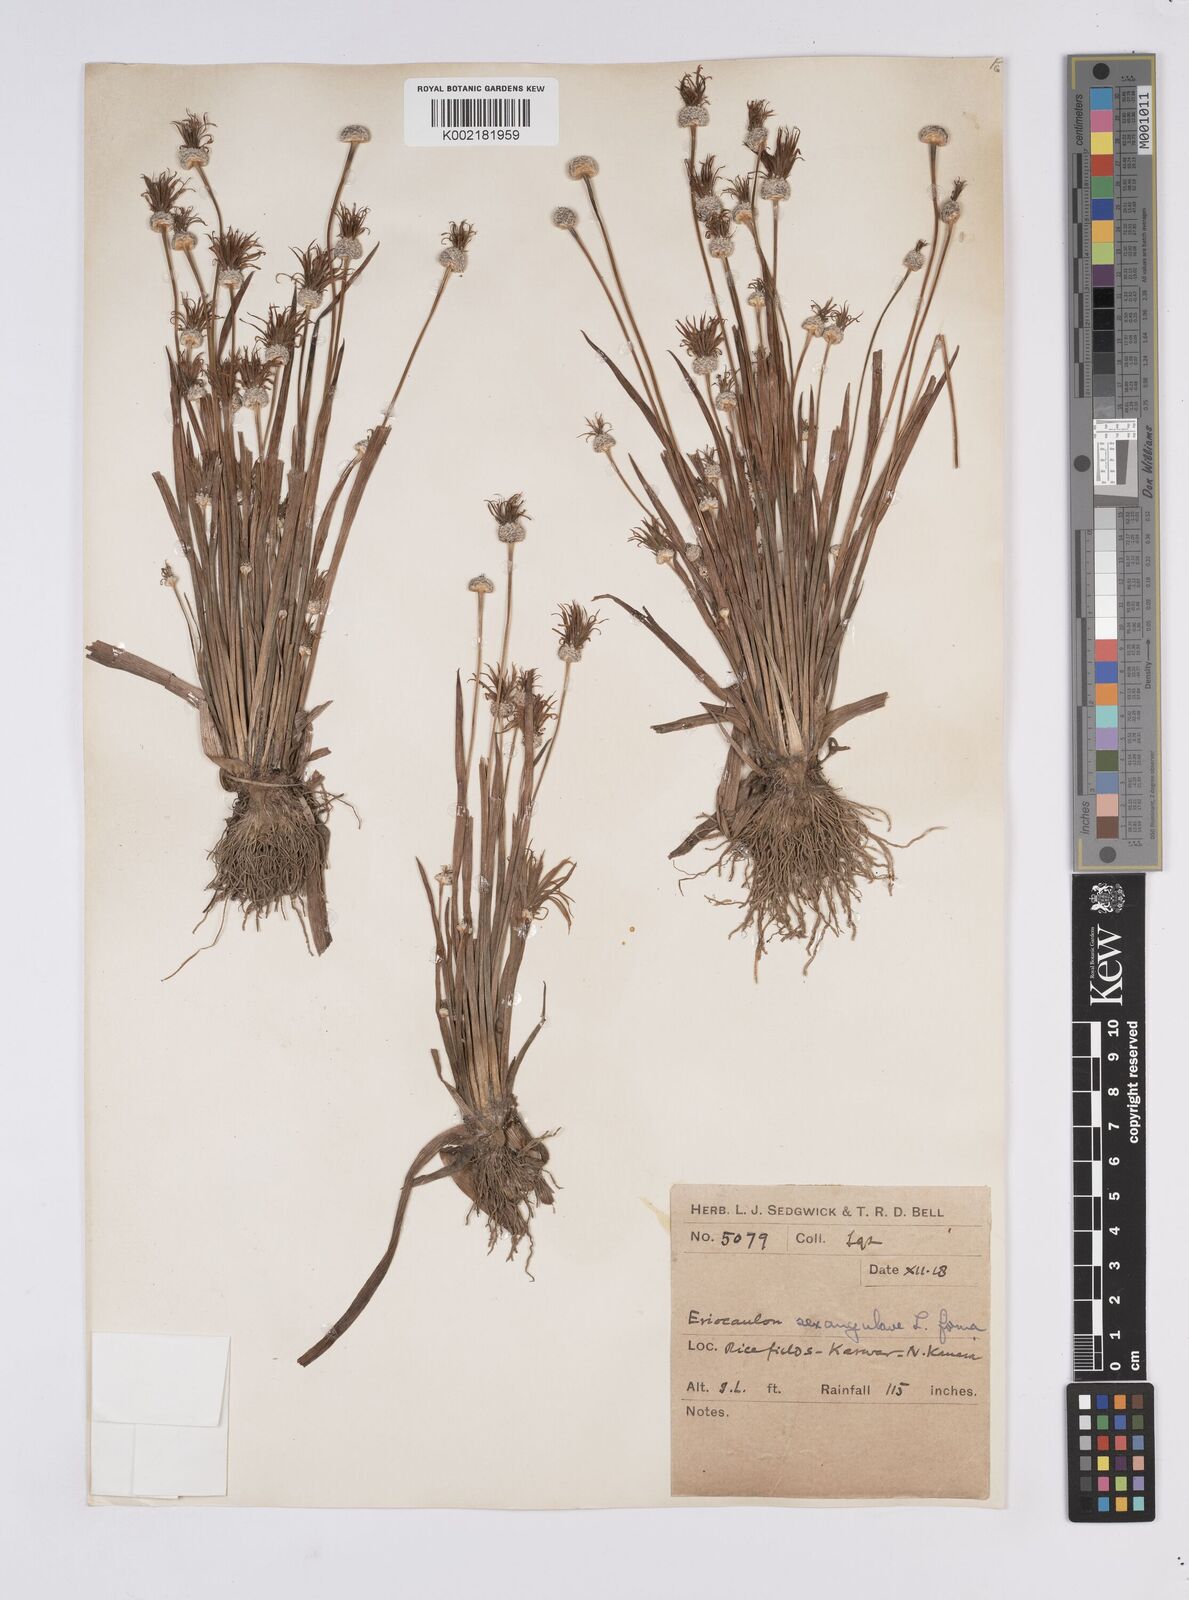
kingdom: Plantae
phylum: Tracheophyta
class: Liliopsida
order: Poales
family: Eriocaulaceae
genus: Eriocaulon
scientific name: Eriocaulon sexangulare
